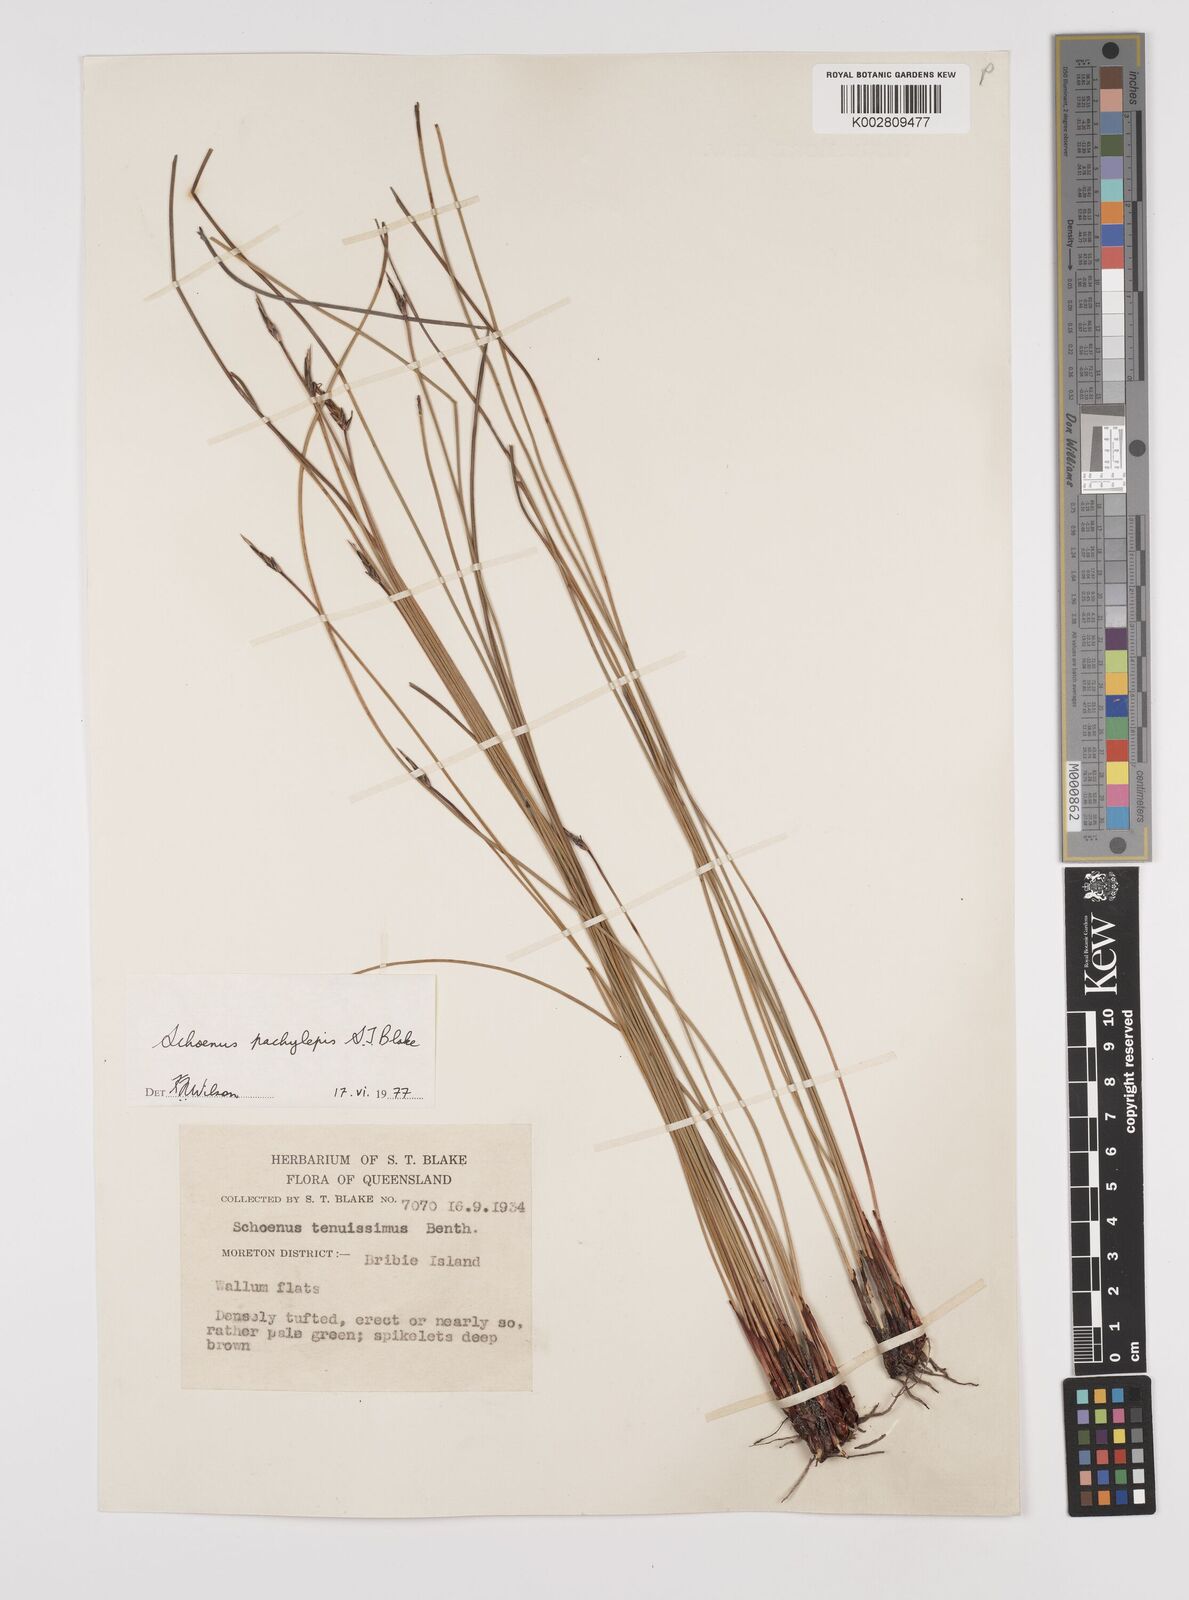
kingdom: Plantae
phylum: Tracheophyta
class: Liliopsida
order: Poales
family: Cyperaceae
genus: Schoenus
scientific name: Schoenus lepidosperma
